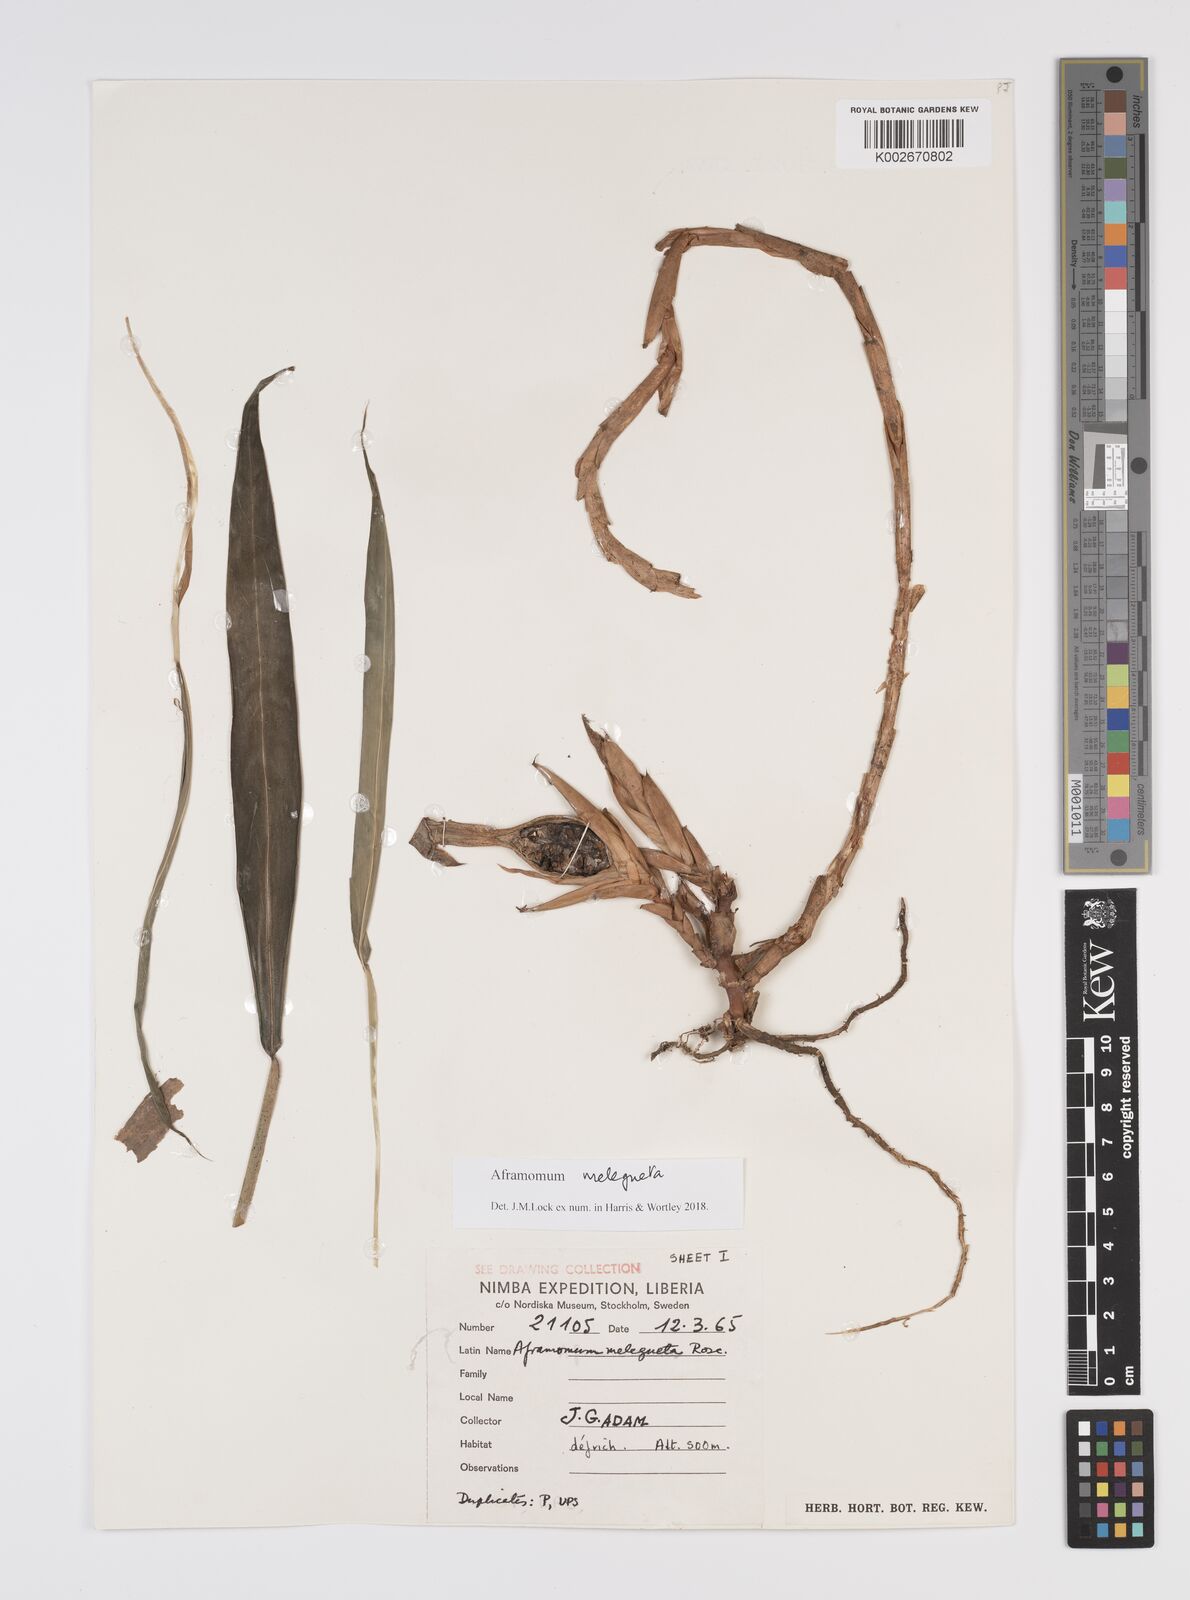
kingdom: Plantae
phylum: Tracheophyta
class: Liliopsida
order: Zingiberales
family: Zingiberaceae
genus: Aframomum
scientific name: Aframomum melegueta
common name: Grains of paradise
